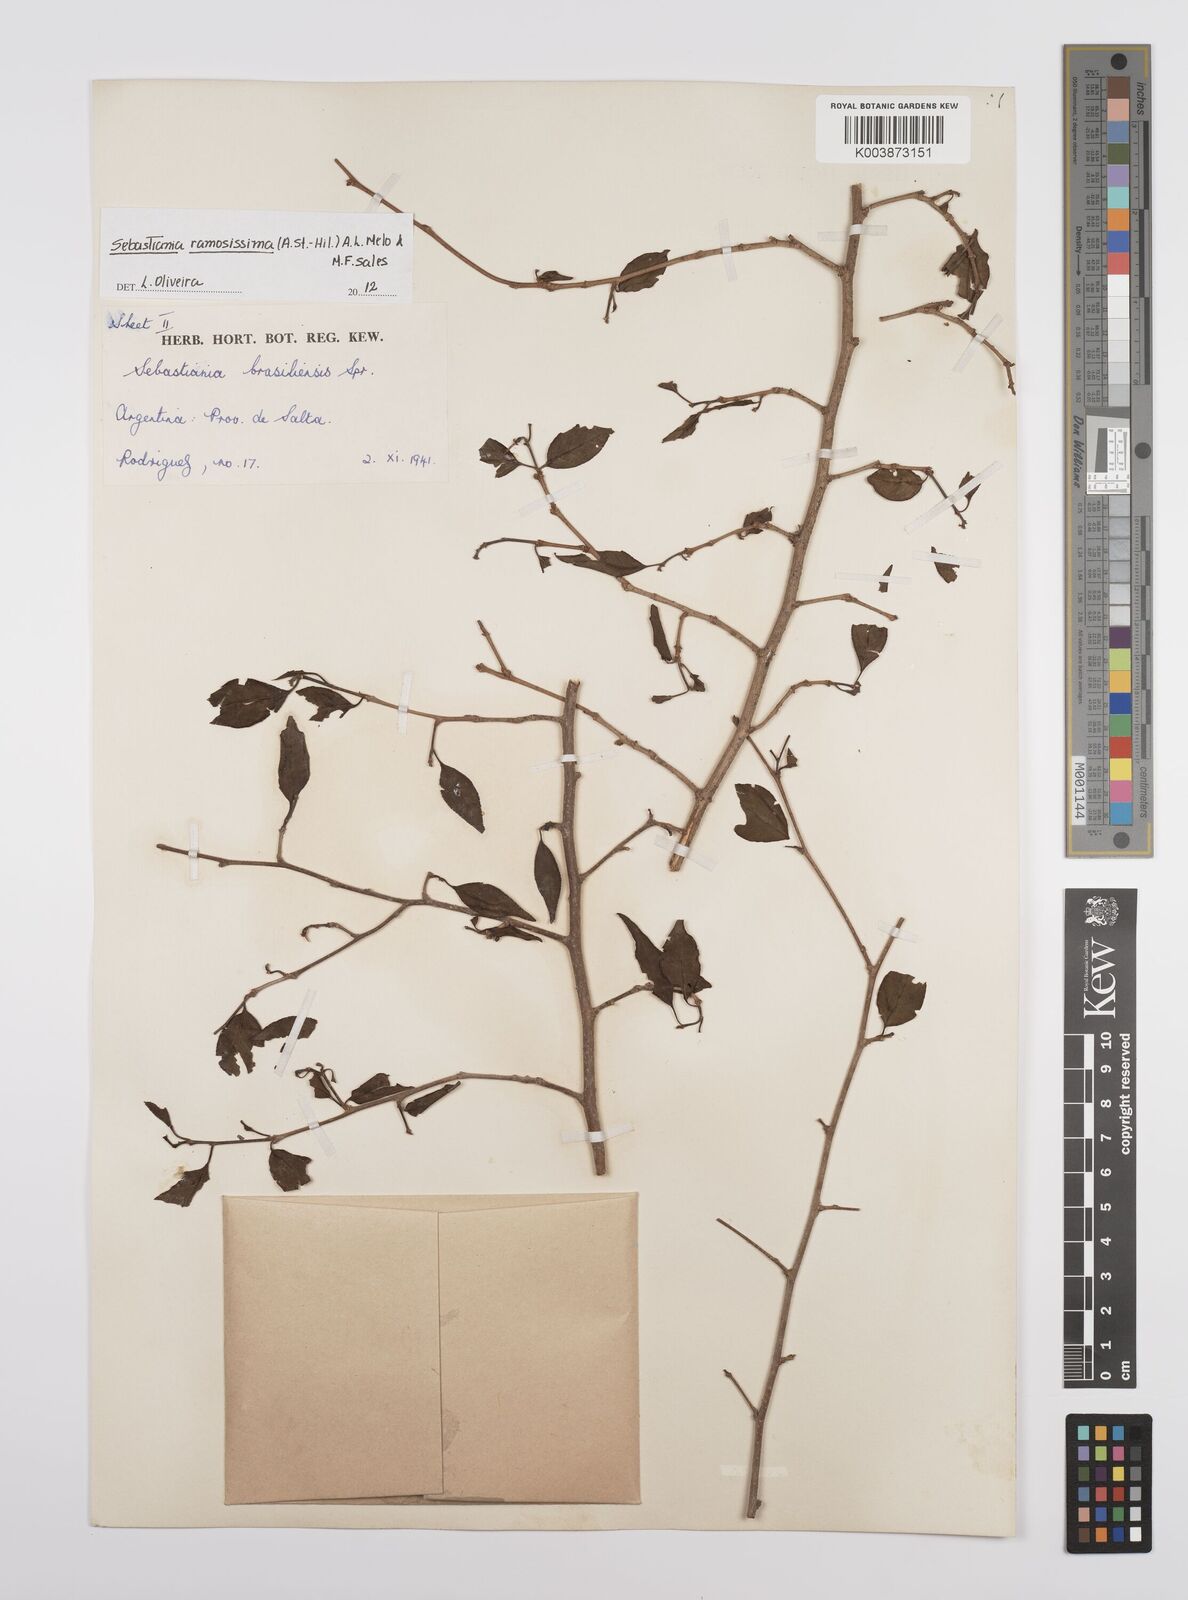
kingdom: Plantae
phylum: Tracheophyta
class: Magnoliopsida
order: Malpighiales
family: Euphorbiaceae
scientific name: Euphorbiaceae
